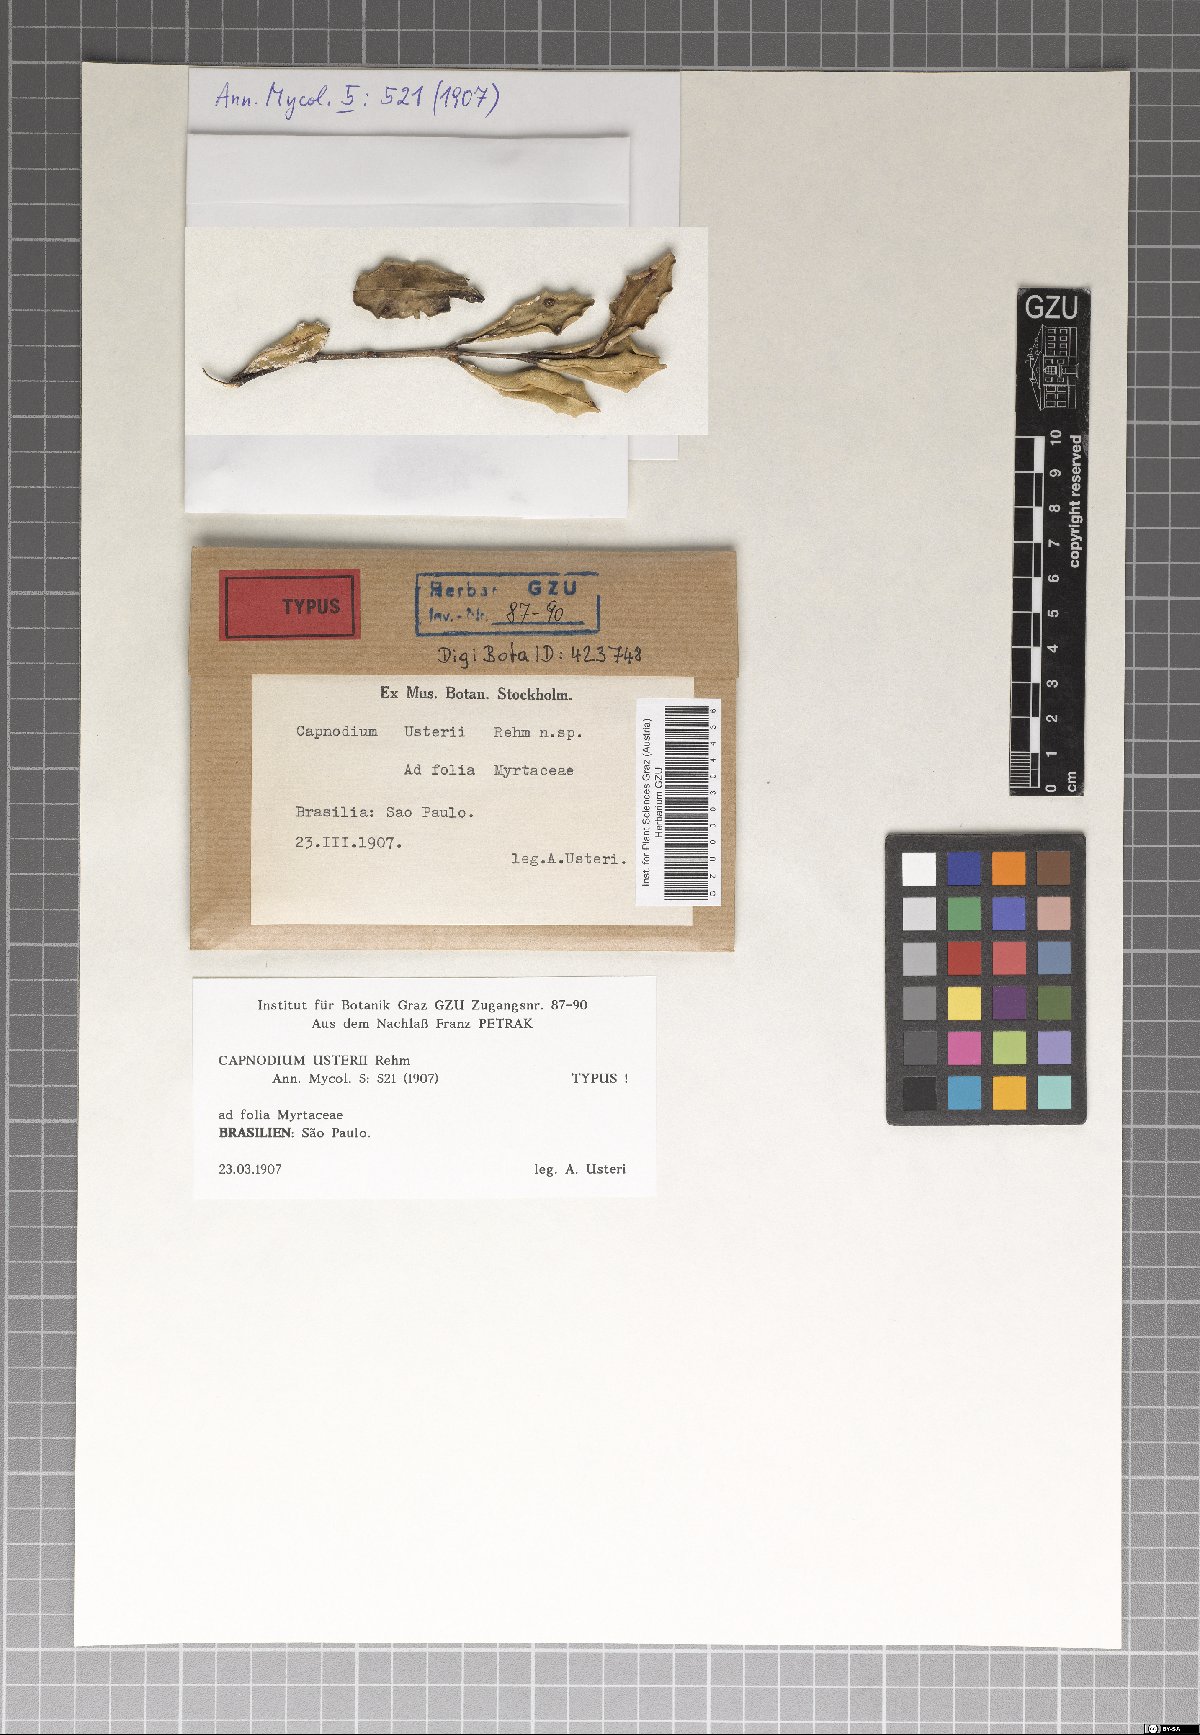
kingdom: Fungi
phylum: Ascomycota
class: Dothideomycetes
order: Capnodiales
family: Capnodiaceae
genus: Capnodium
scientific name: Capnodium usteri
